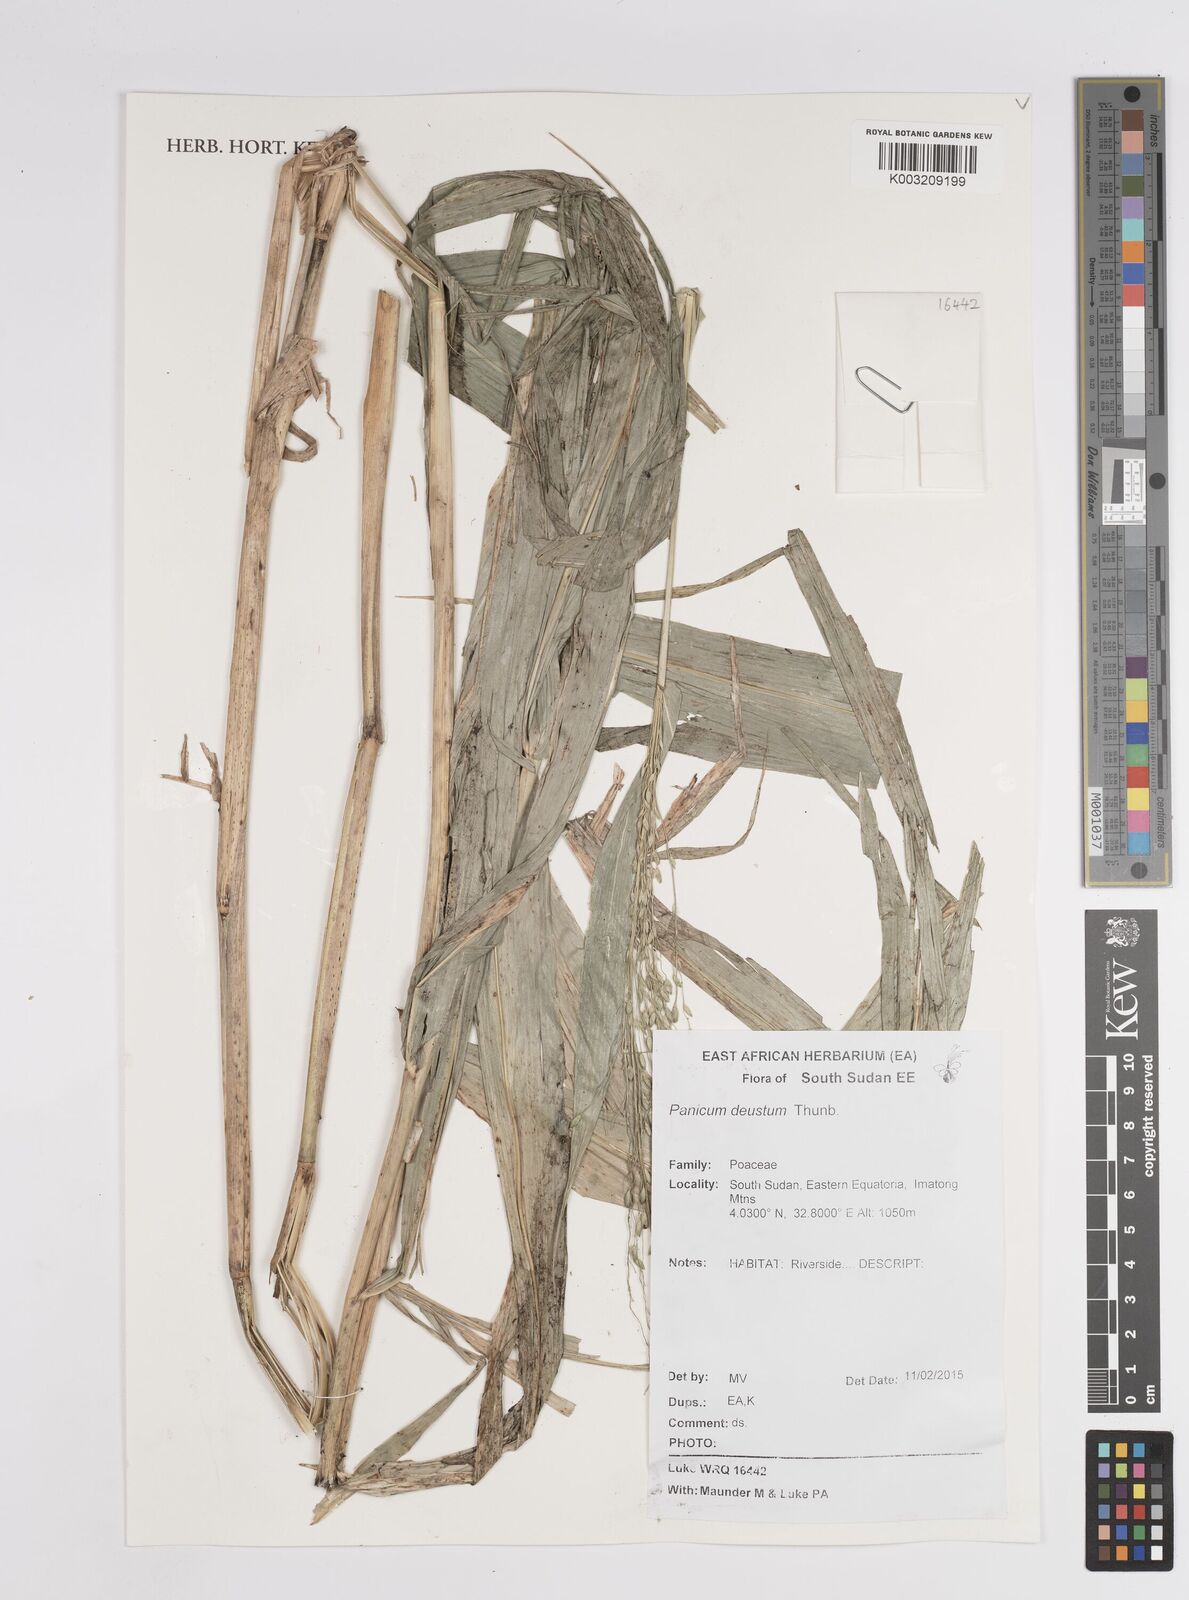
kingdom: Plantae
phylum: Tracheophyta
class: Liliopsida
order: Poales
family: Poaceae
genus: Panicum
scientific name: Panicum
